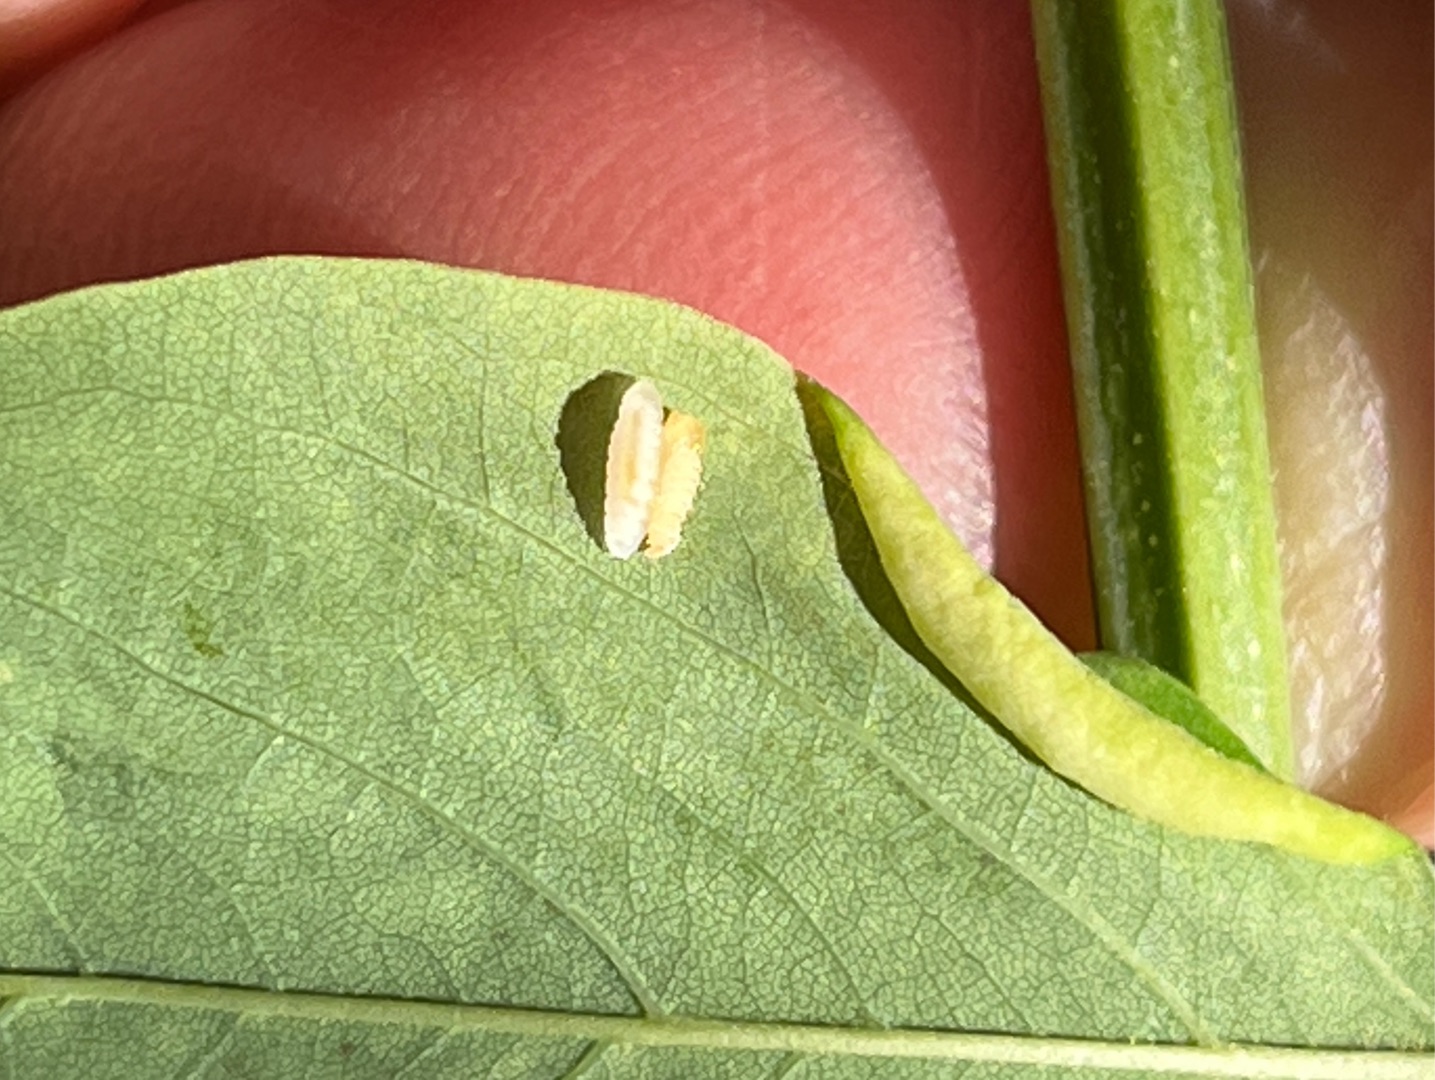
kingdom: Animalia
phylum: Arthropoda
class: Insecta
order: Diptera
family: Cecidomyiidae
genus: Obolodiplosis
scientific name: Obolodiplosis robiniae
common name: Robiniegalmyg
